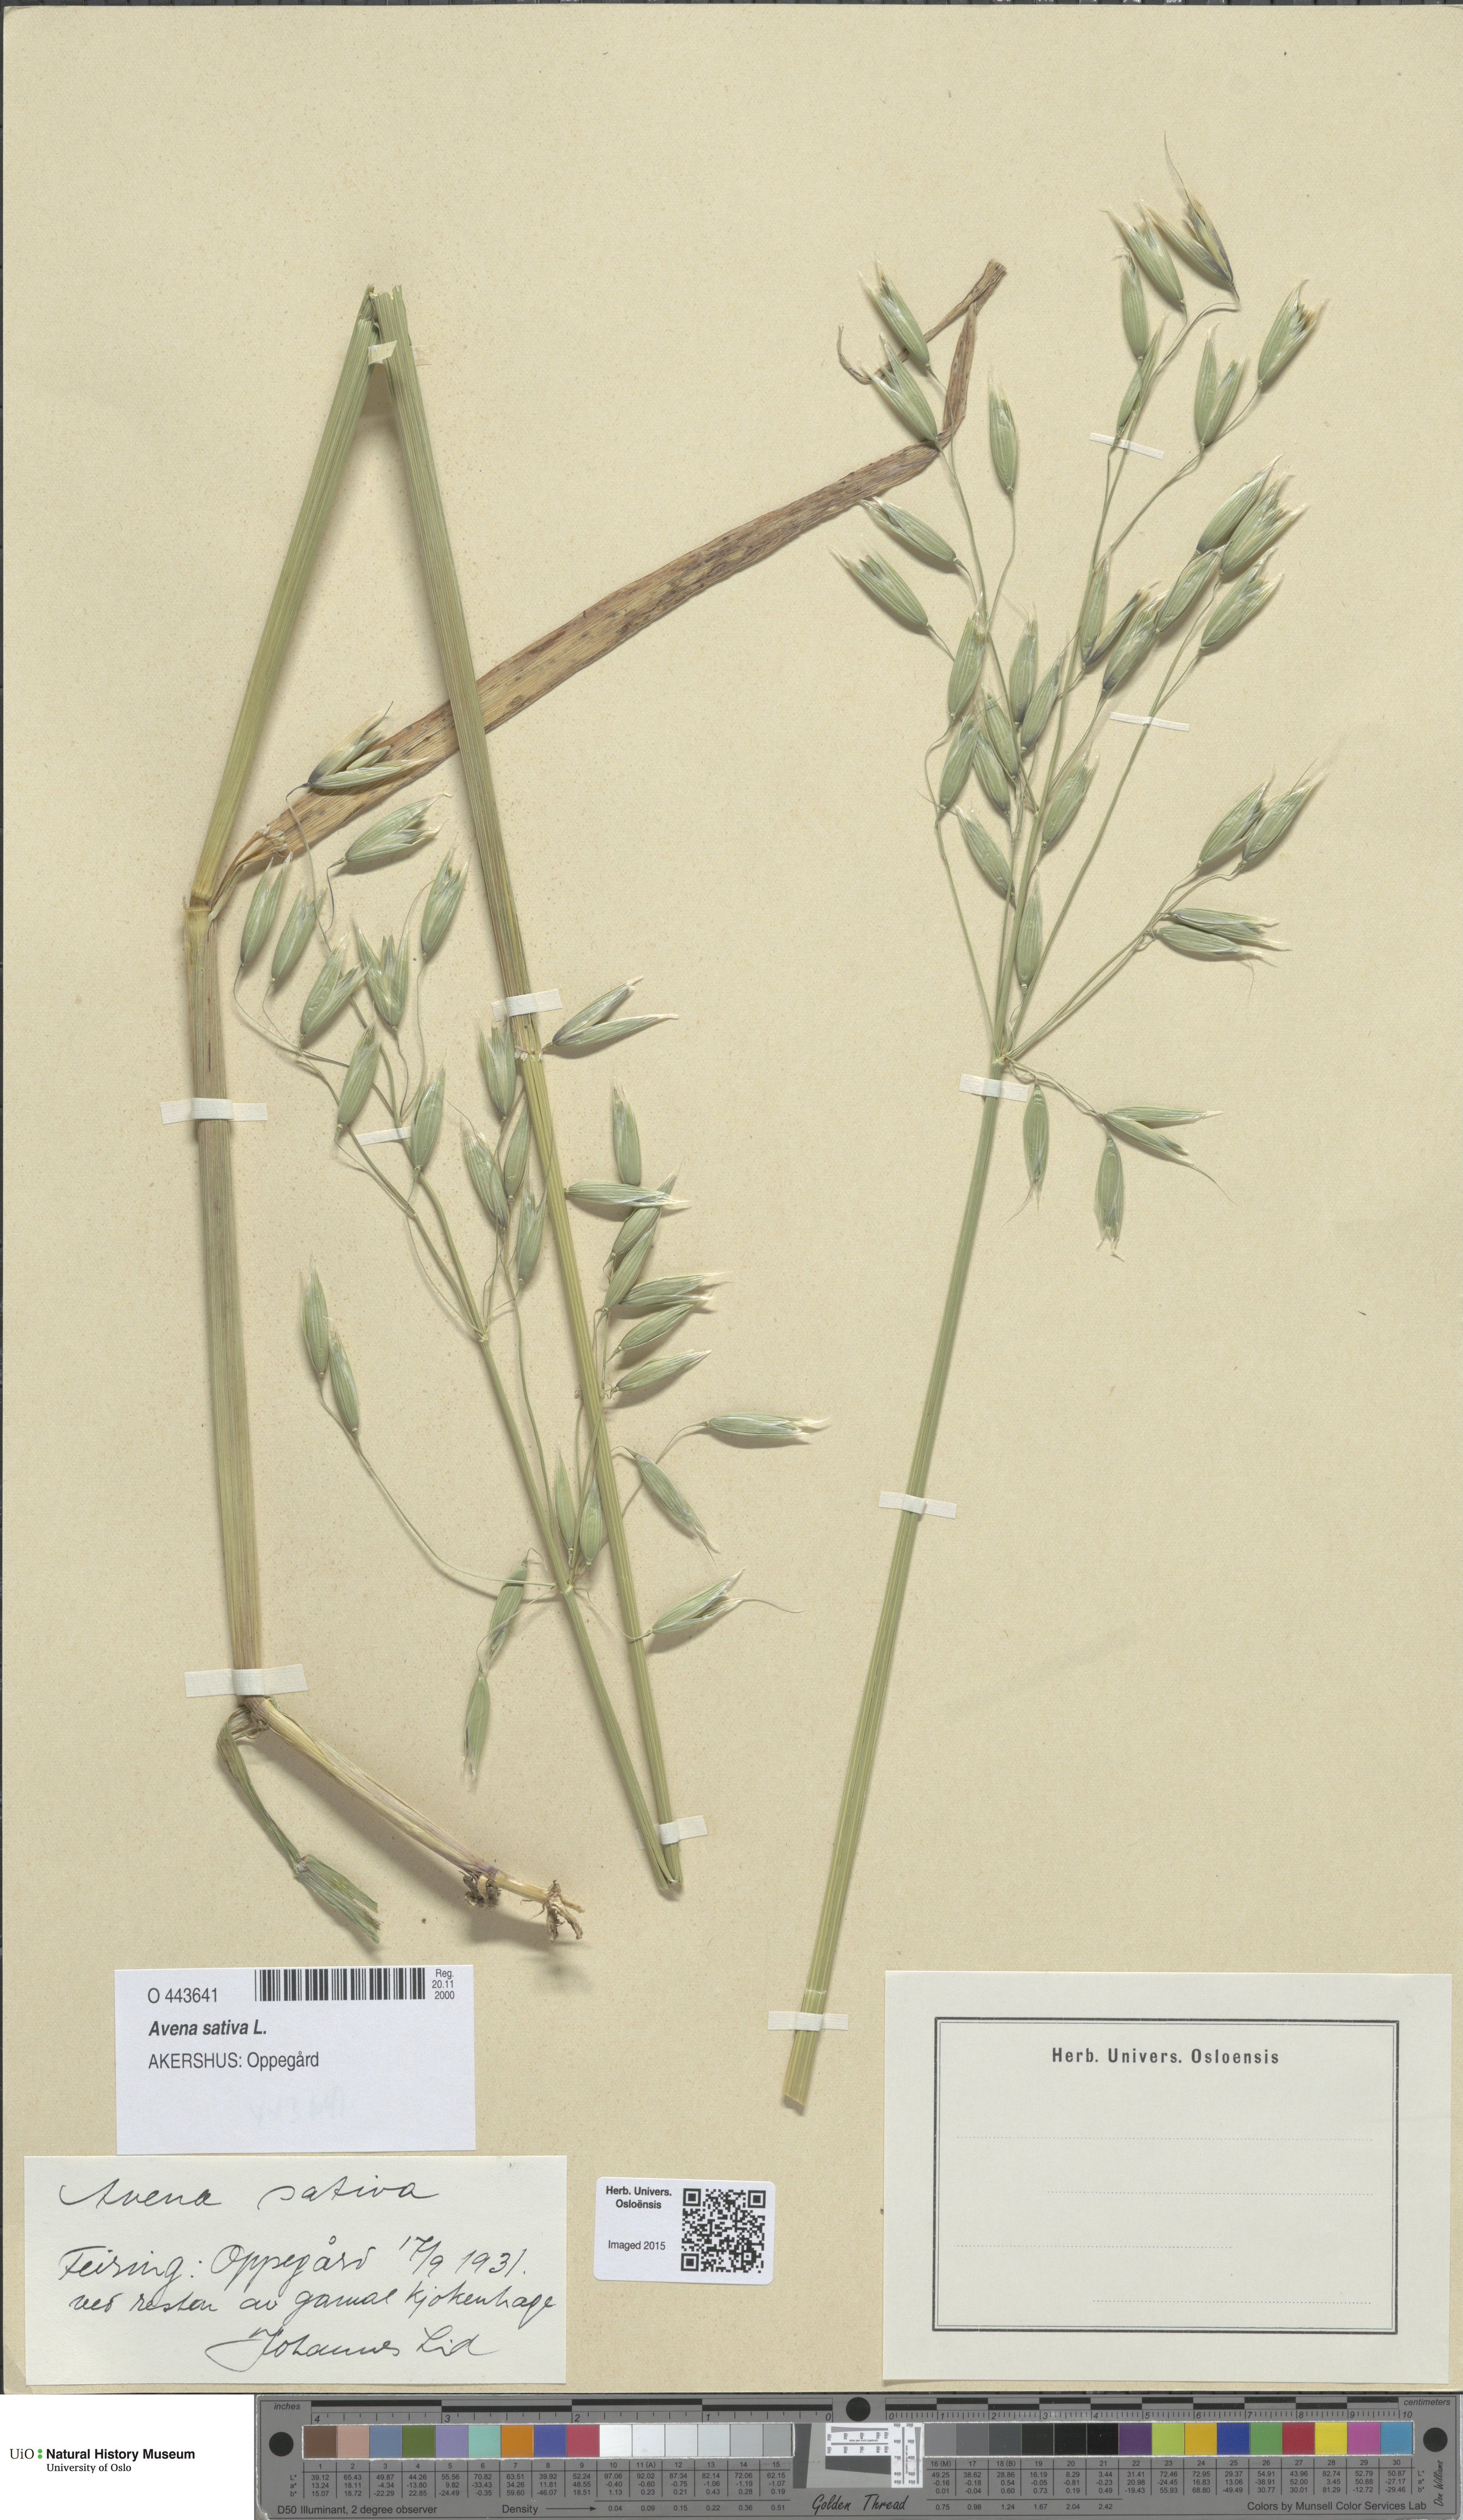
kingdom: Plantae
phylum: Tracheophyta
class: Liliopsida
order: Poales
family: Poaceae
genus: Avena
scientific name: Avena sativa
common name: Oat
